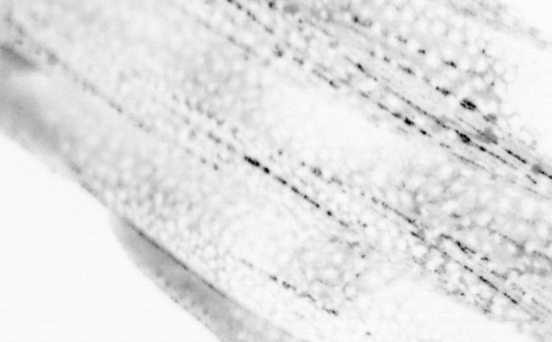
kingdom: Animalia
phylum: Chordata
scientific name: Chordata
